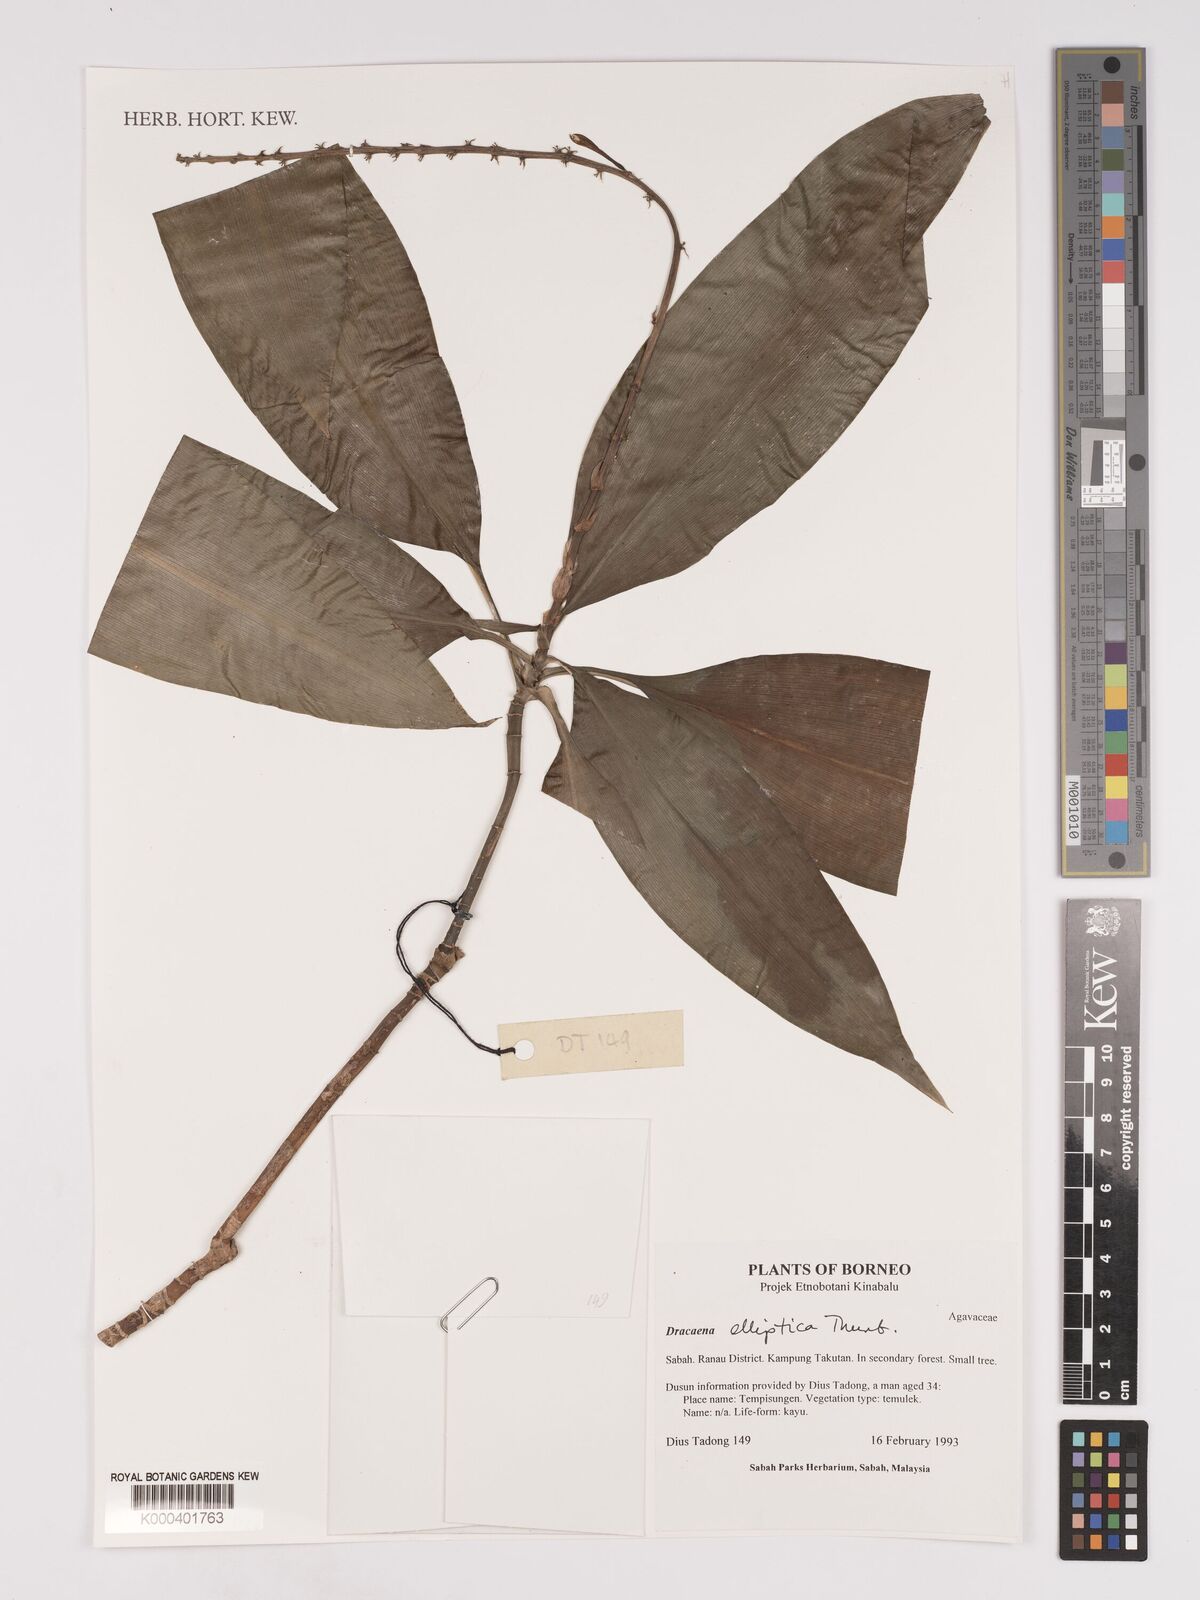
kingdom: Plantae
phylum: Tracheophyta
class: Liliopsida
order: Asparagales
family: Asparagaceae
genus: Dracaena
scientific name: Dracaena elliptica
